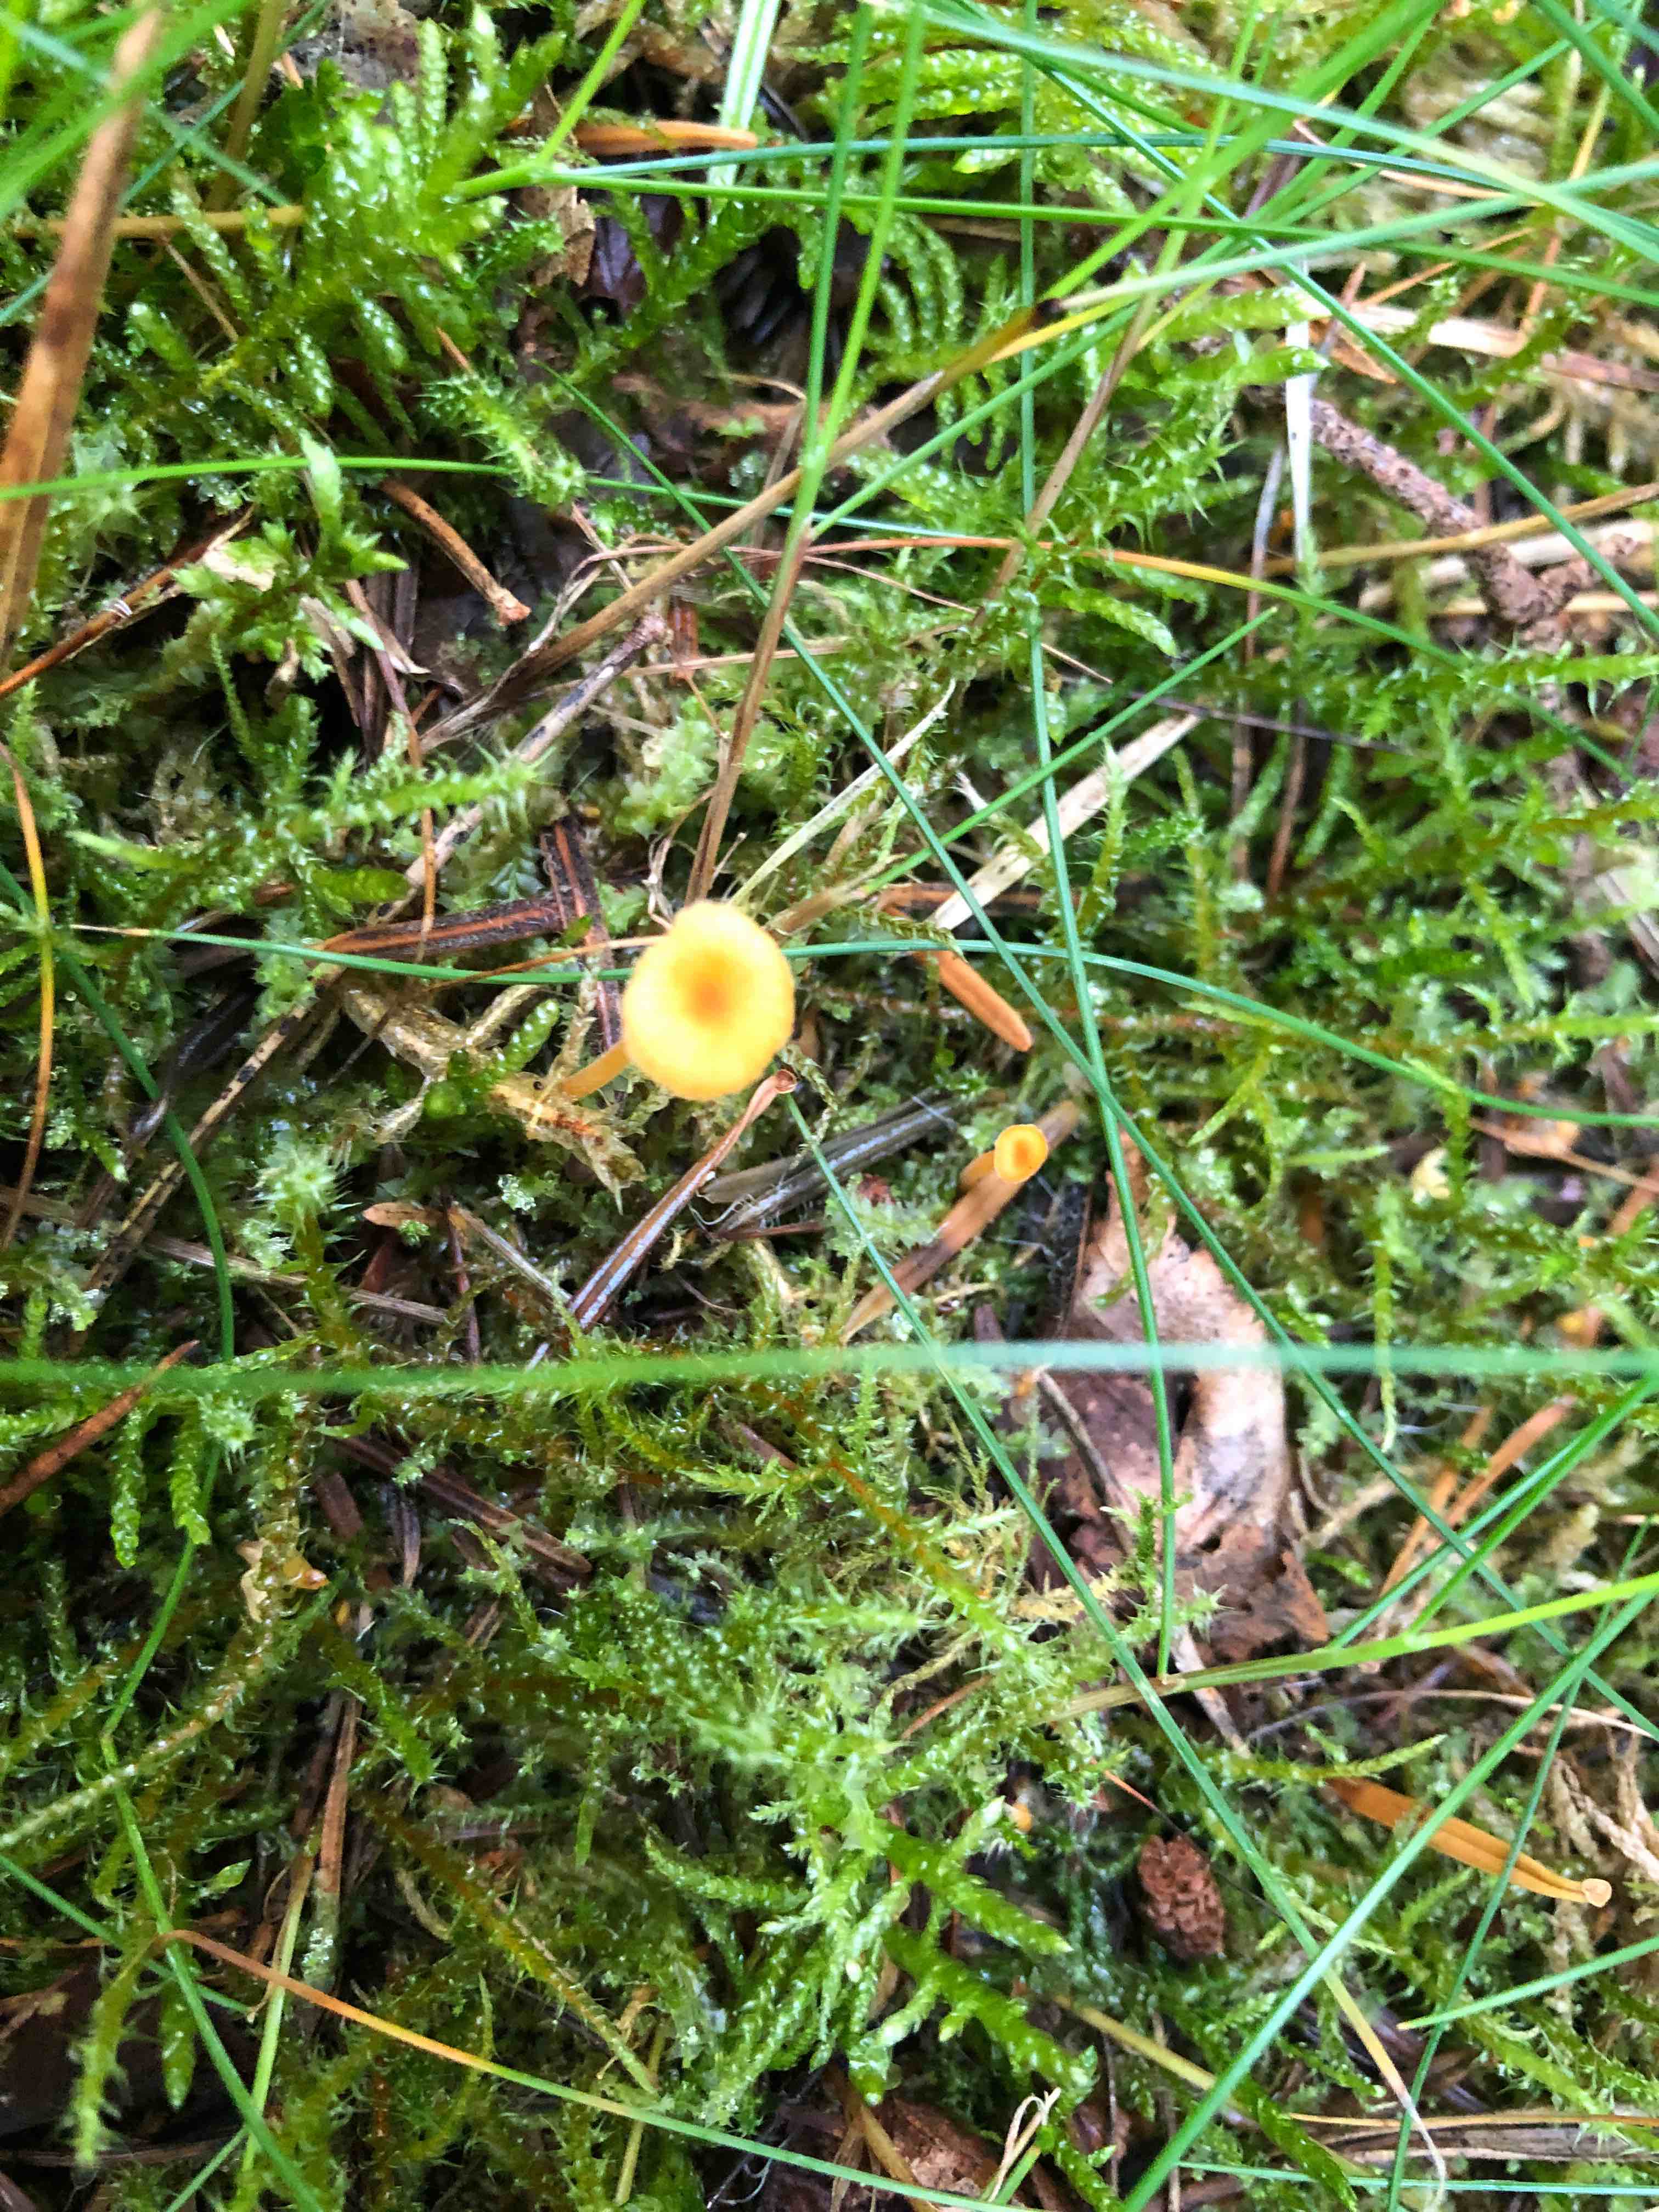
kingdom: Fungi
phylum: Basidiomycota
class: Agaricomycetes
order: Hymenochaetales
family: Rickenellaceae
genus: Rickenella
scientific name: Rickenella fibula
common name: orange mosnavlehat
